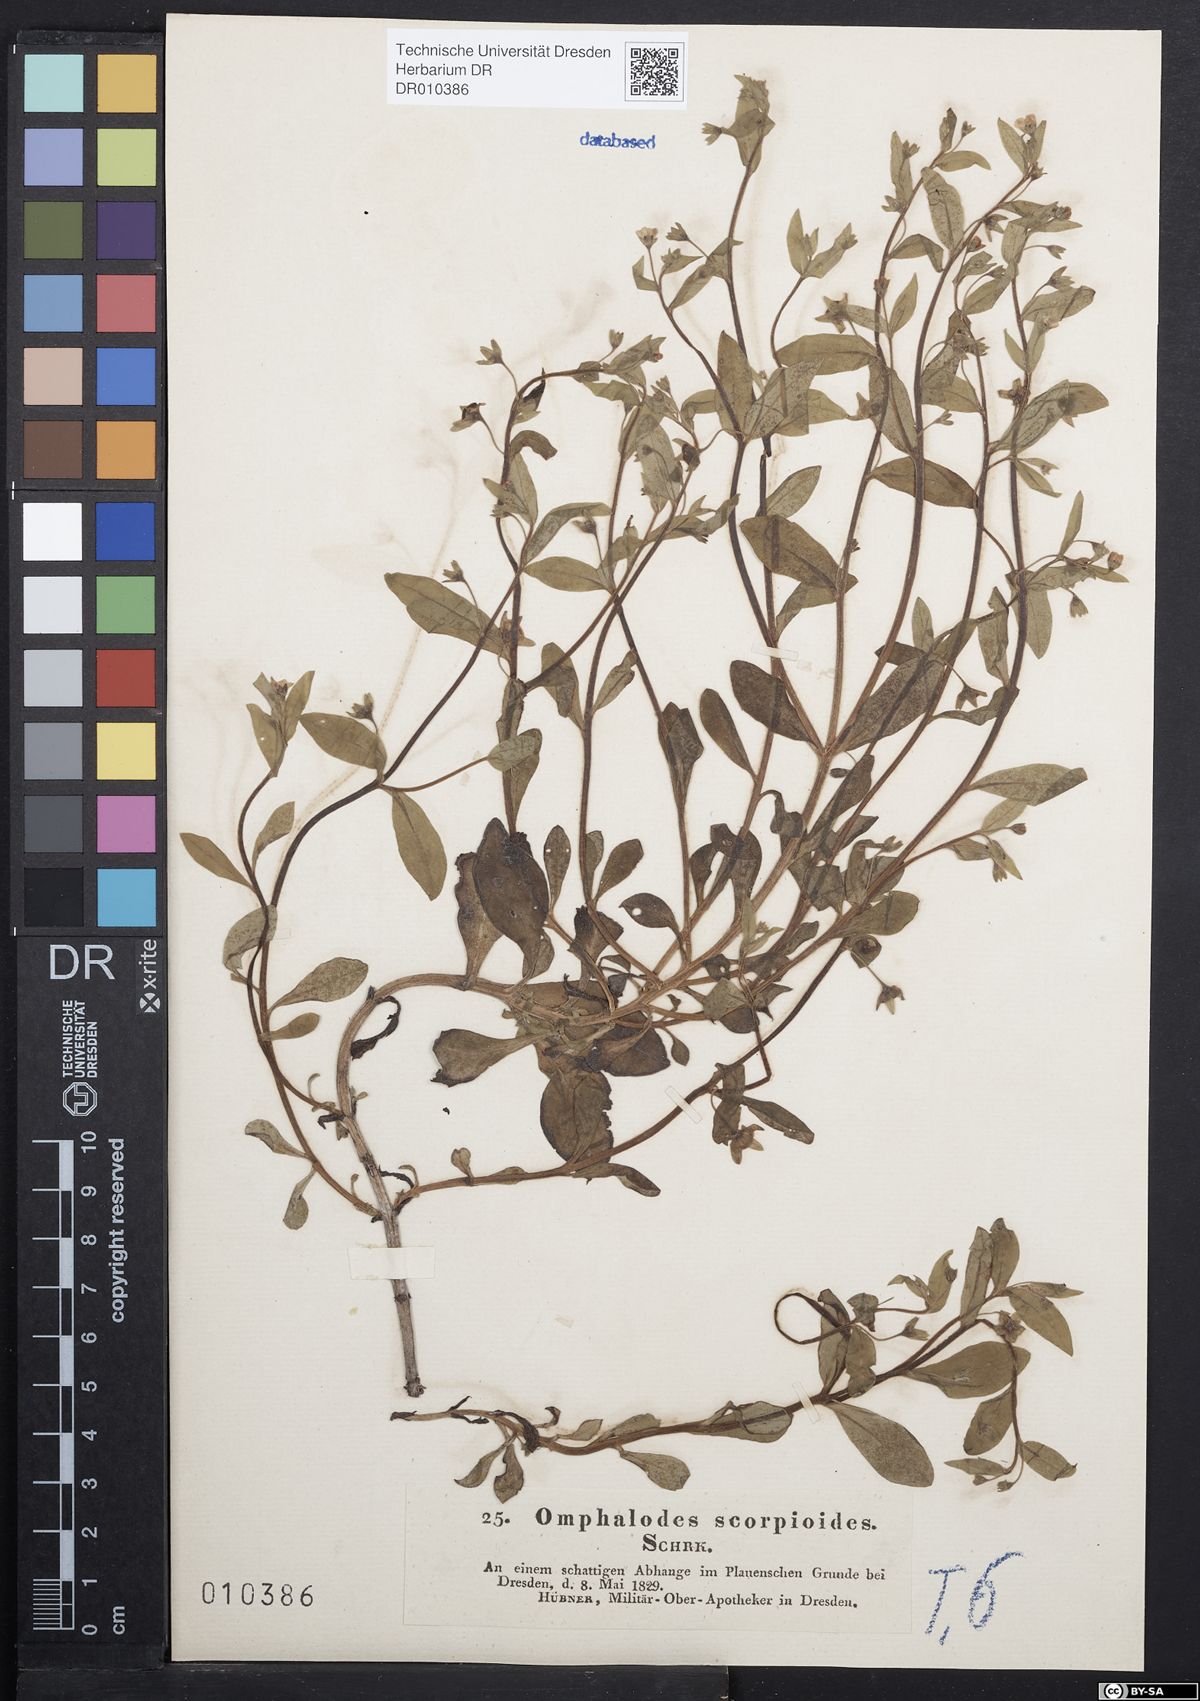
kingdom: Plantae
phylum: Tracheophyta
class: Magnoliopsida
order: Boraginales
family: Boraginaceae
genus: Memoremea
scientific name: Memoremea scorpioides
